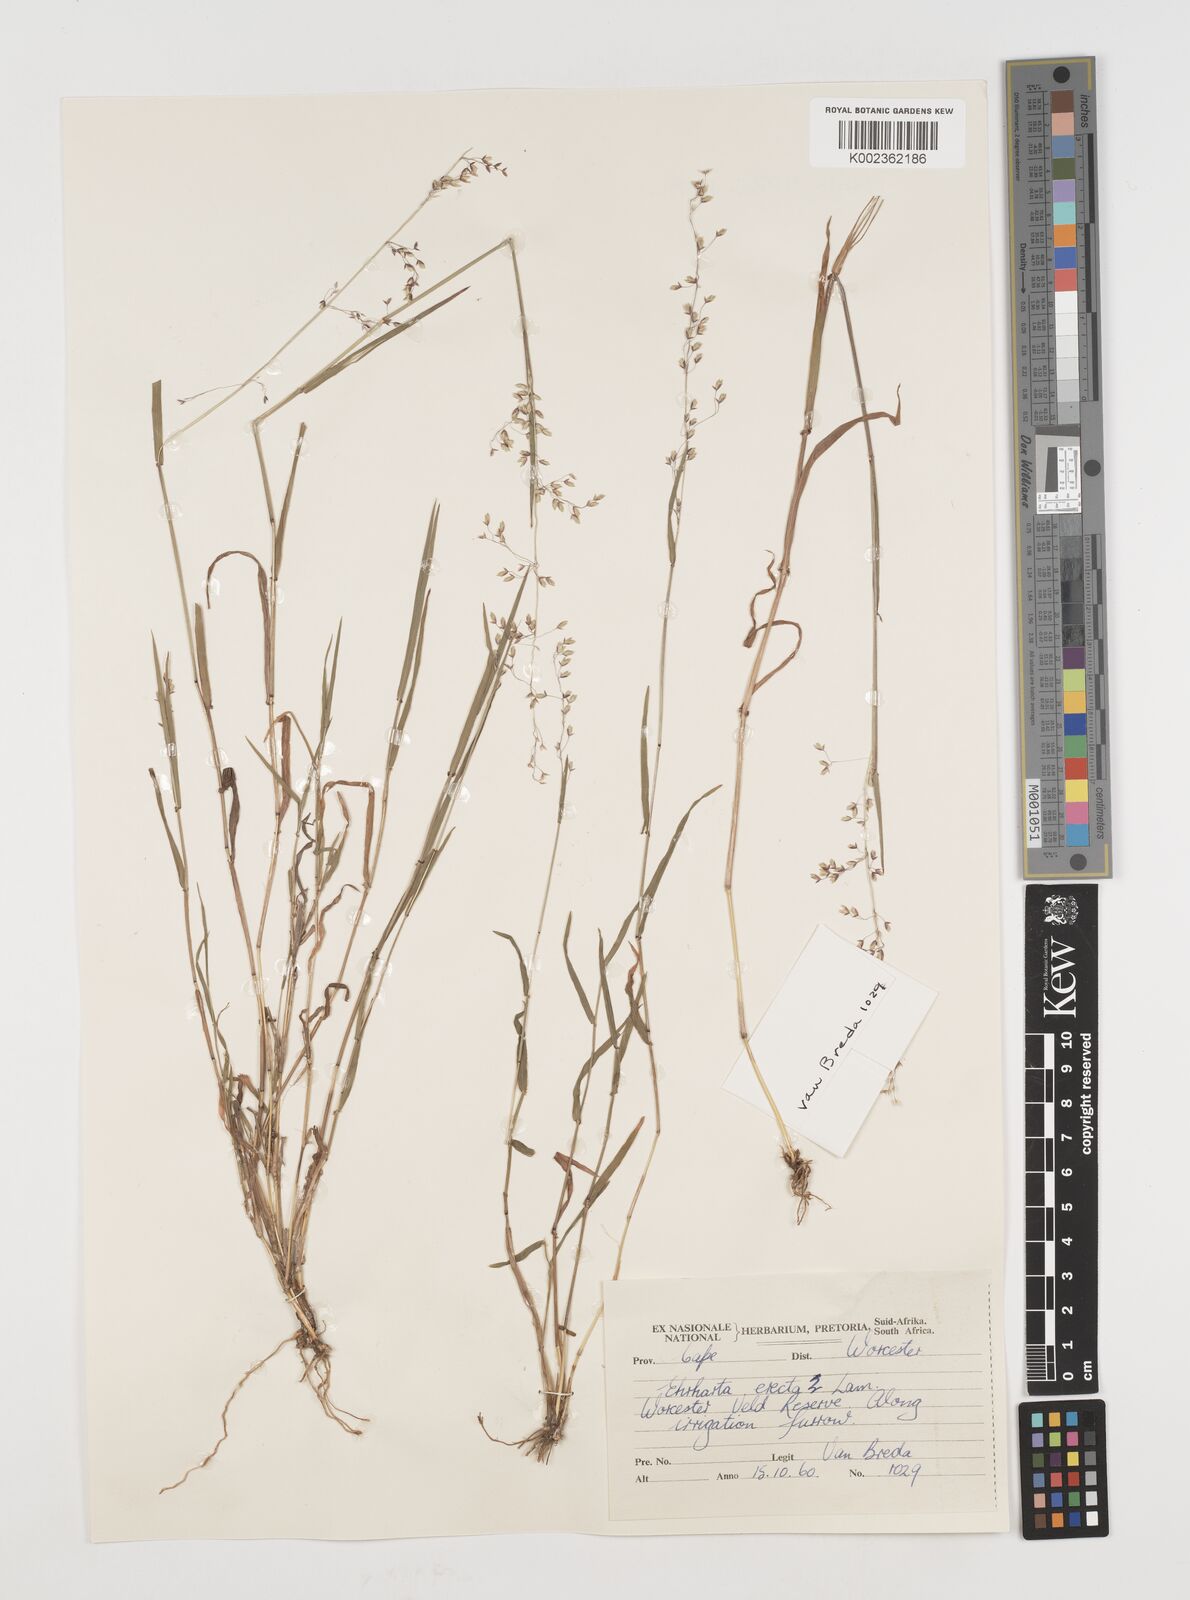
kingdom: Plantae
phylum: Tracheophyta
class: Liliopsida
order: Poales
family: Poaceae
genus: Ehrharta
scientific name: Ehrharta
